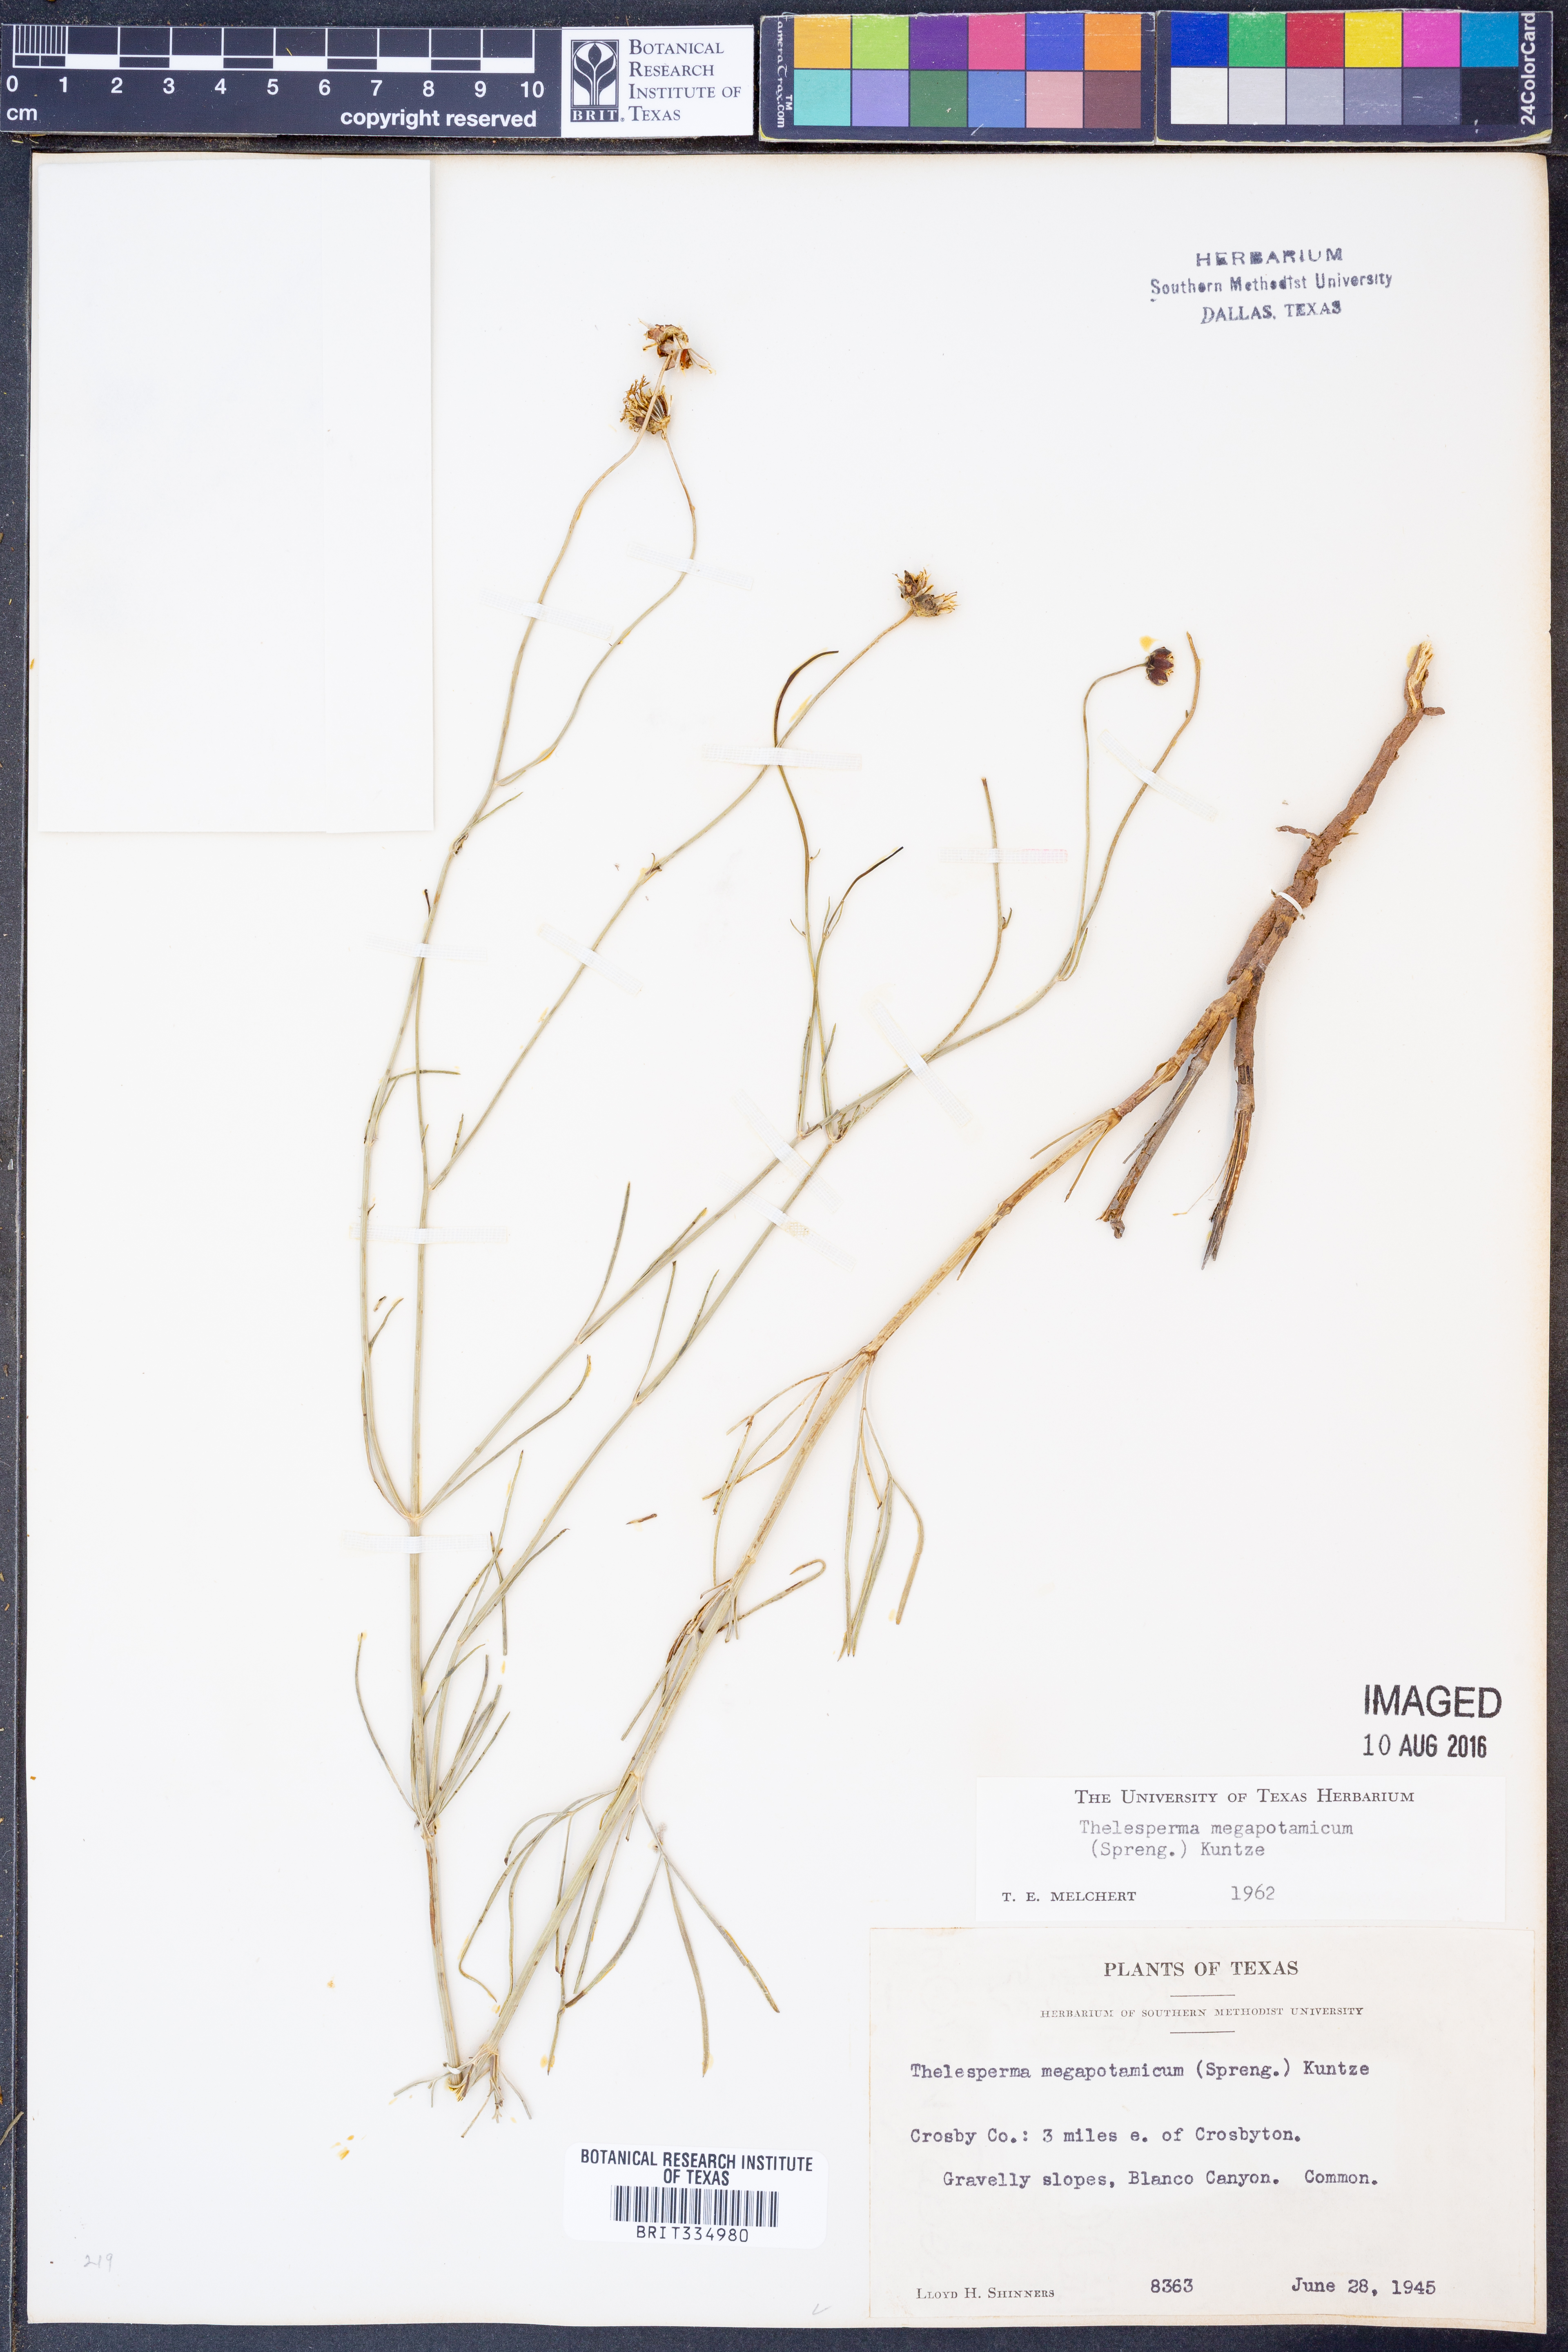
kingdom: Plantae
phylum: Tracheophyta
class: Magnoliopsida
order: Asterales
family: Asteraceae
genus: Thelesperma
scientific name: Thelesperma megapotamicum
